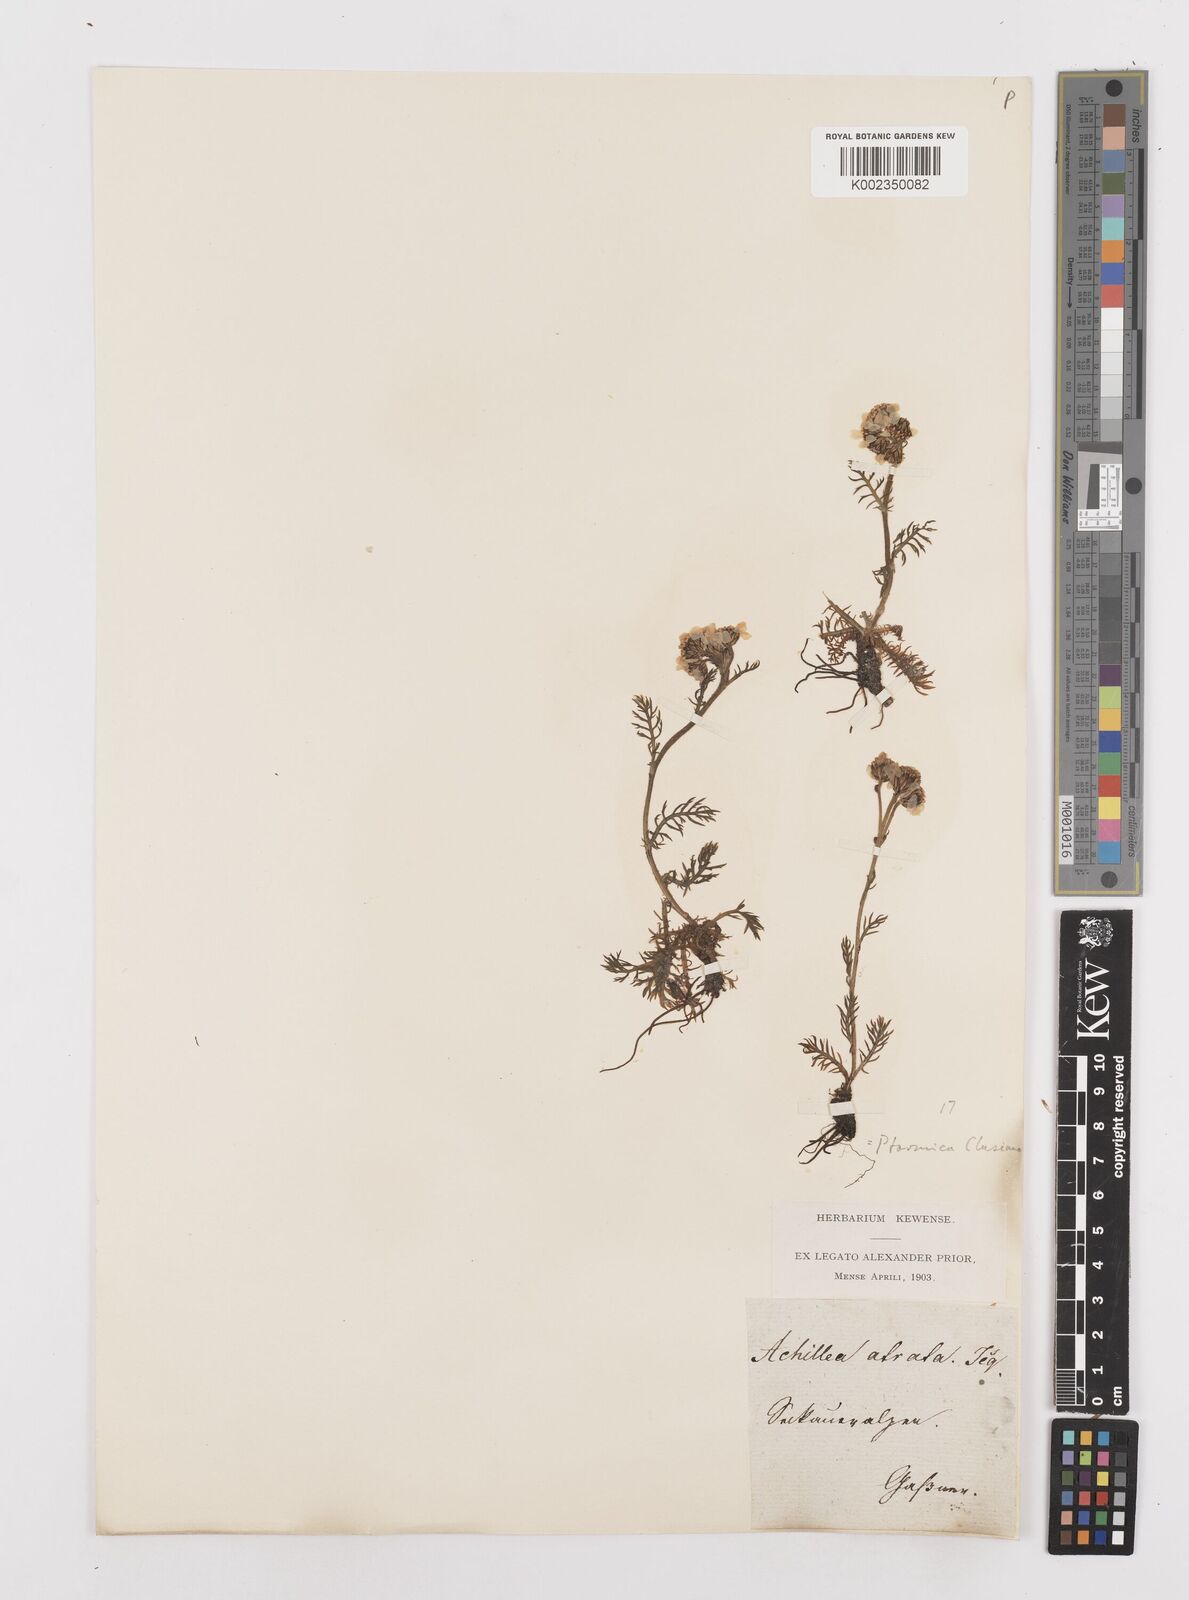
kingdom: Plantae
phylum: Tracheophyta
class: Magnoliopsida
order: Asterales
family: Asteraceae
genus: Achillea
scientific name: Achillea atrata
